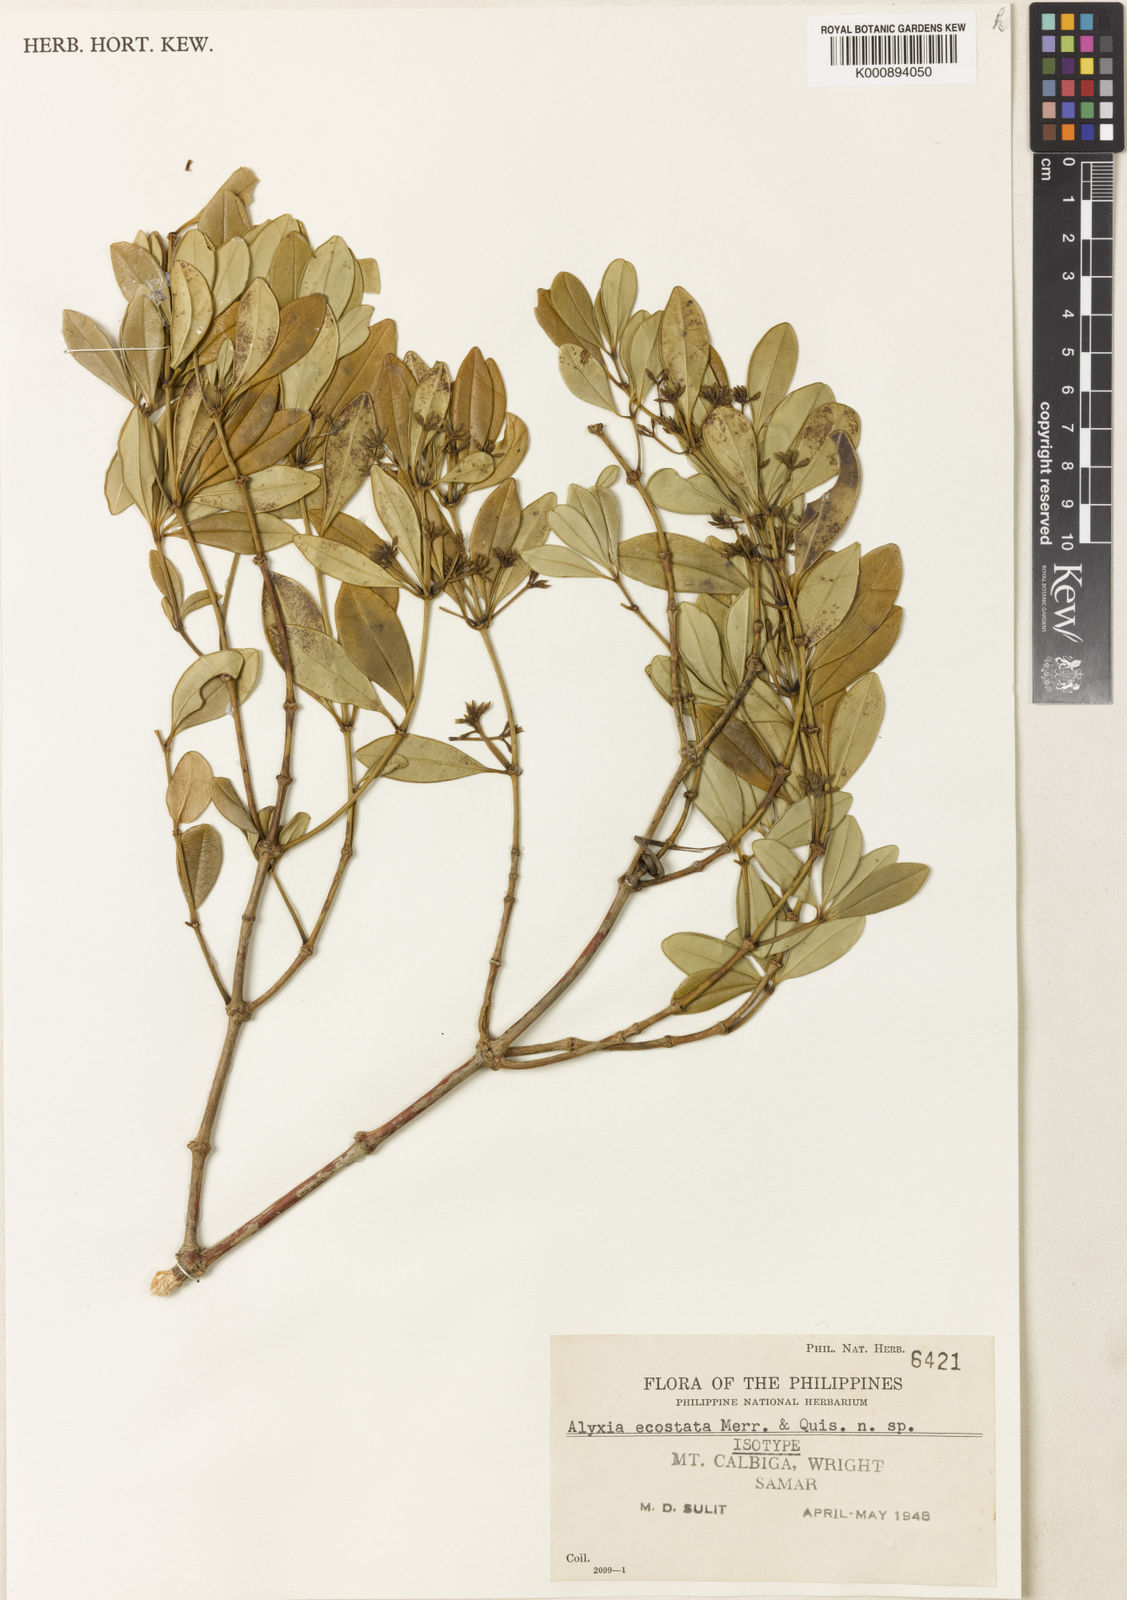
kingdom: Plantae
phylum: Tracheophyta
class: Magnoliopsida
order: Gentianales
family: Apocynaceae
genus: Alyxia
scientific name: Alyxia luzoniensis
